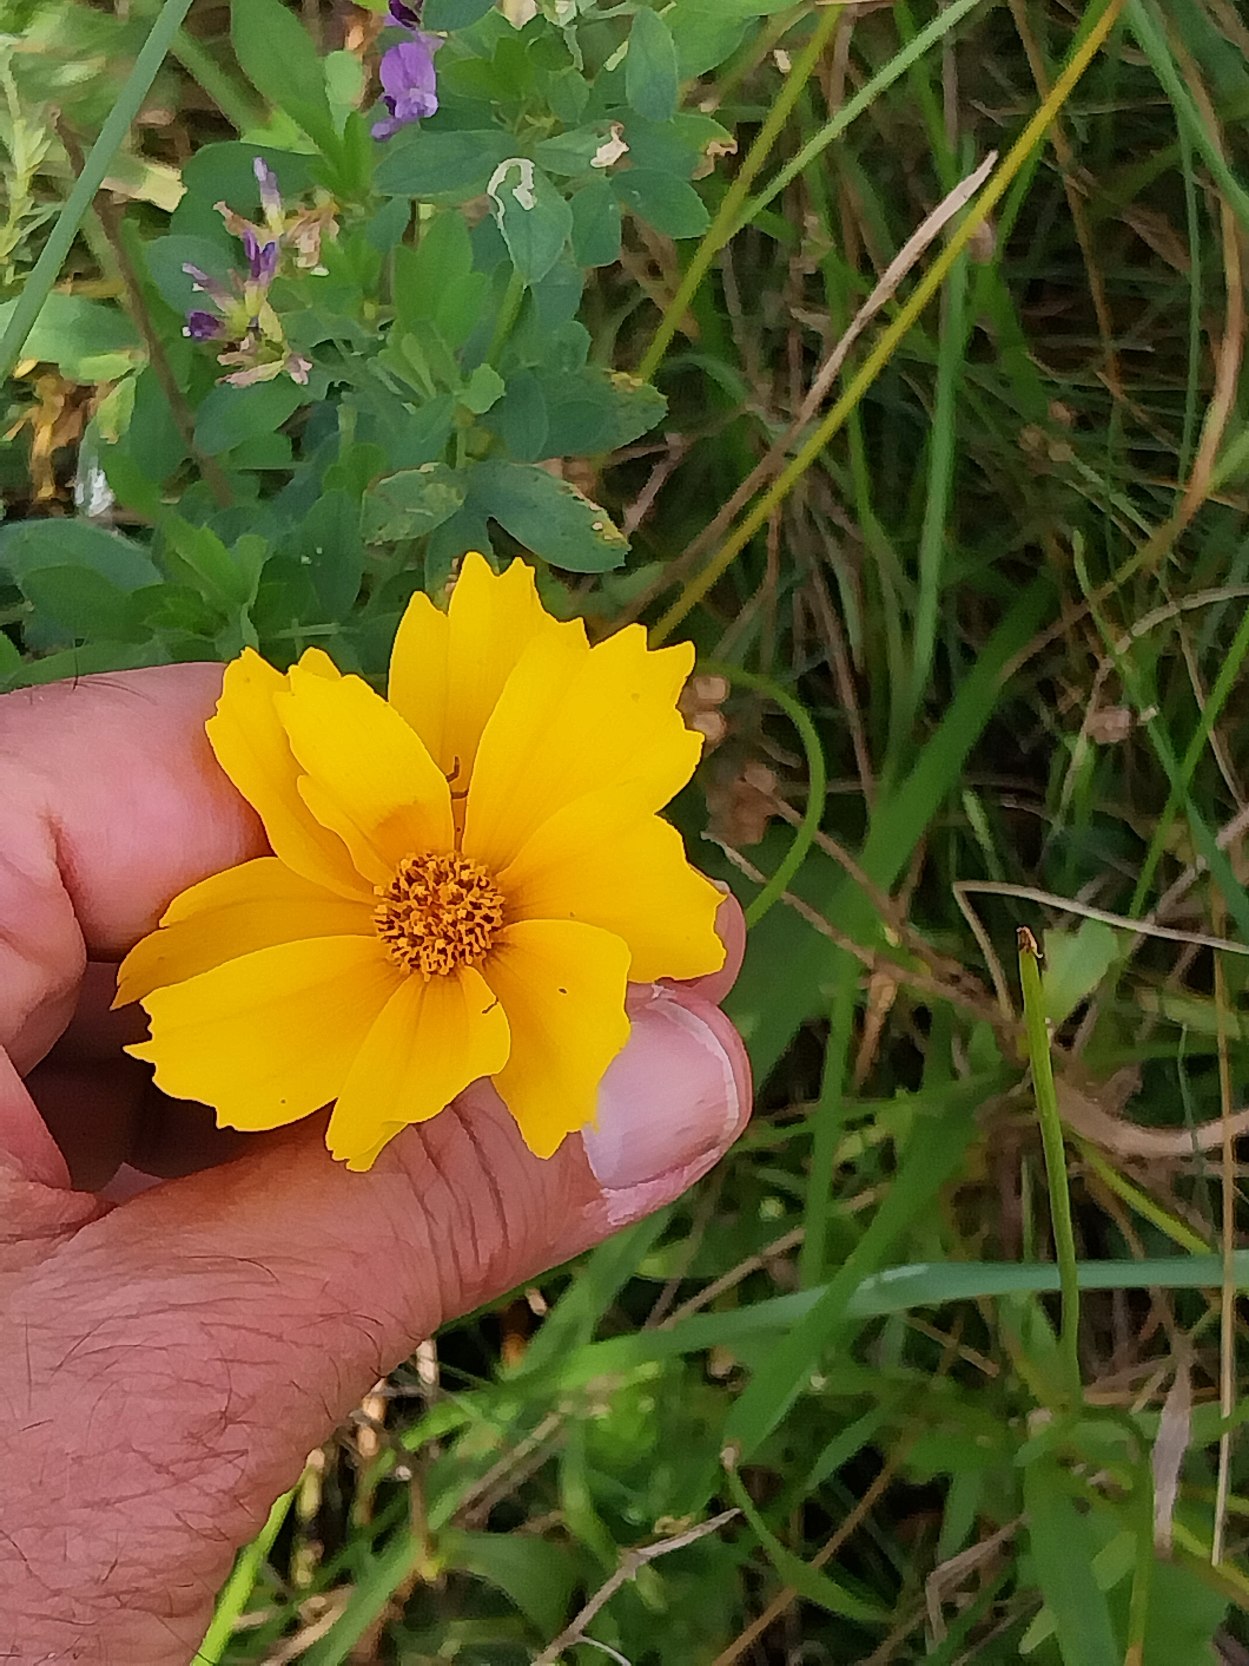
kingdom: Plantae
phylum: Tracheophyta
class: Magnoliopsida
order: Asterales
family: Asteraceae
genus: Coreopsis
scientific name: Coreopsis
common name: Skønhedsøjeslægten
